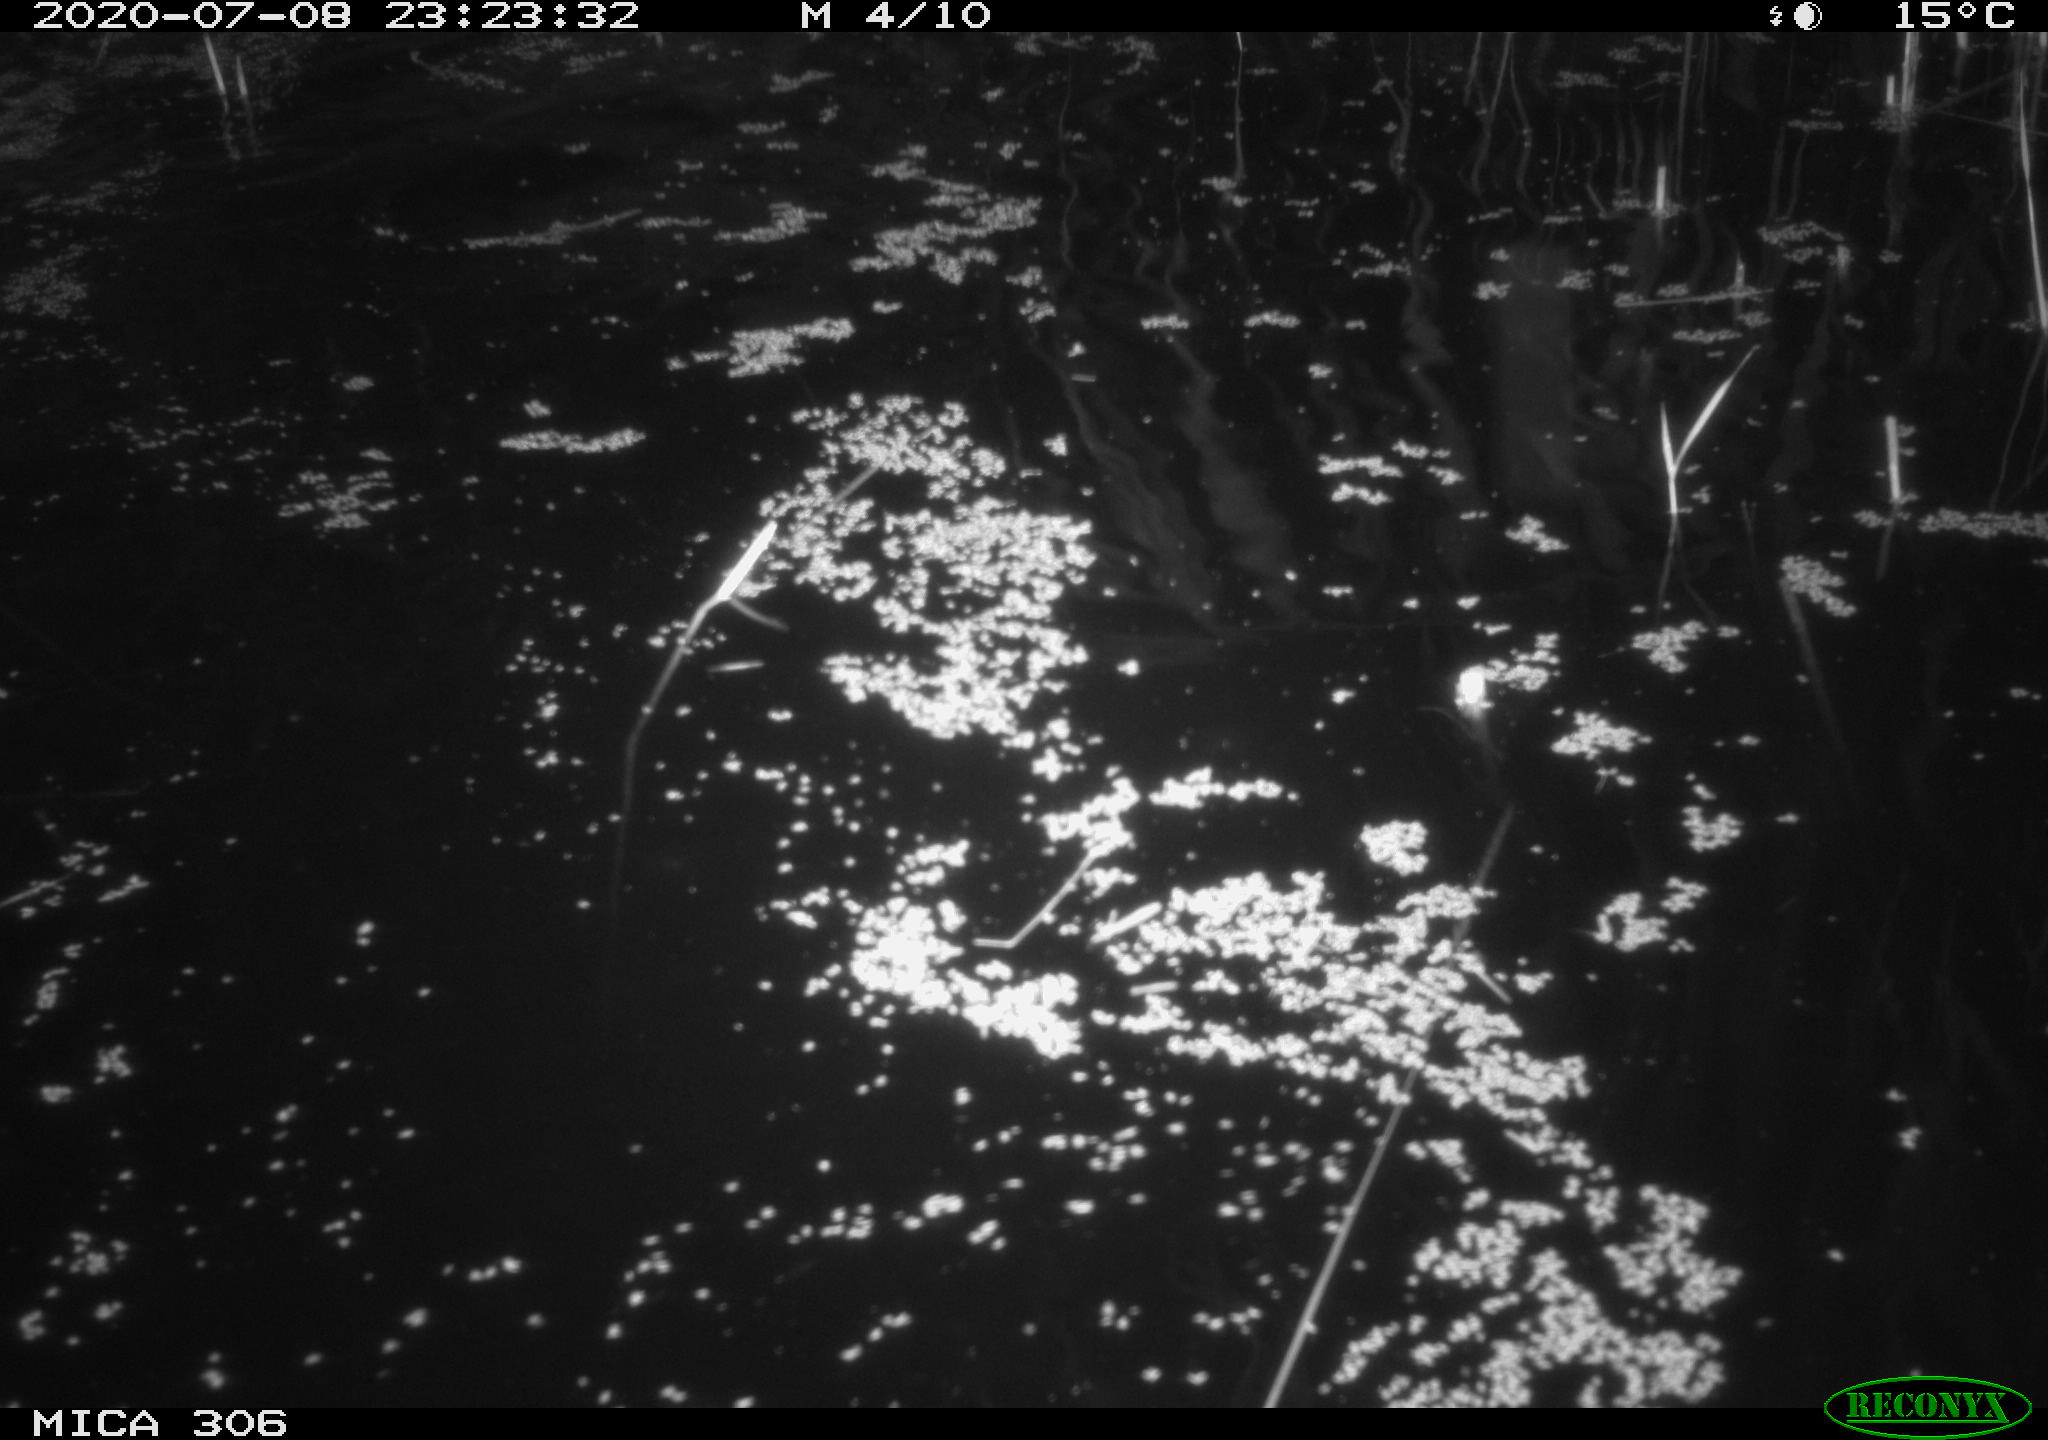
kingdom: Animalia
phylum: Chordata
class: Mammalia
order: Rodentia
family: Cricetidae
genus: Ondatra
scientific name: Ondatra zibethicus
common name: Muskrat
